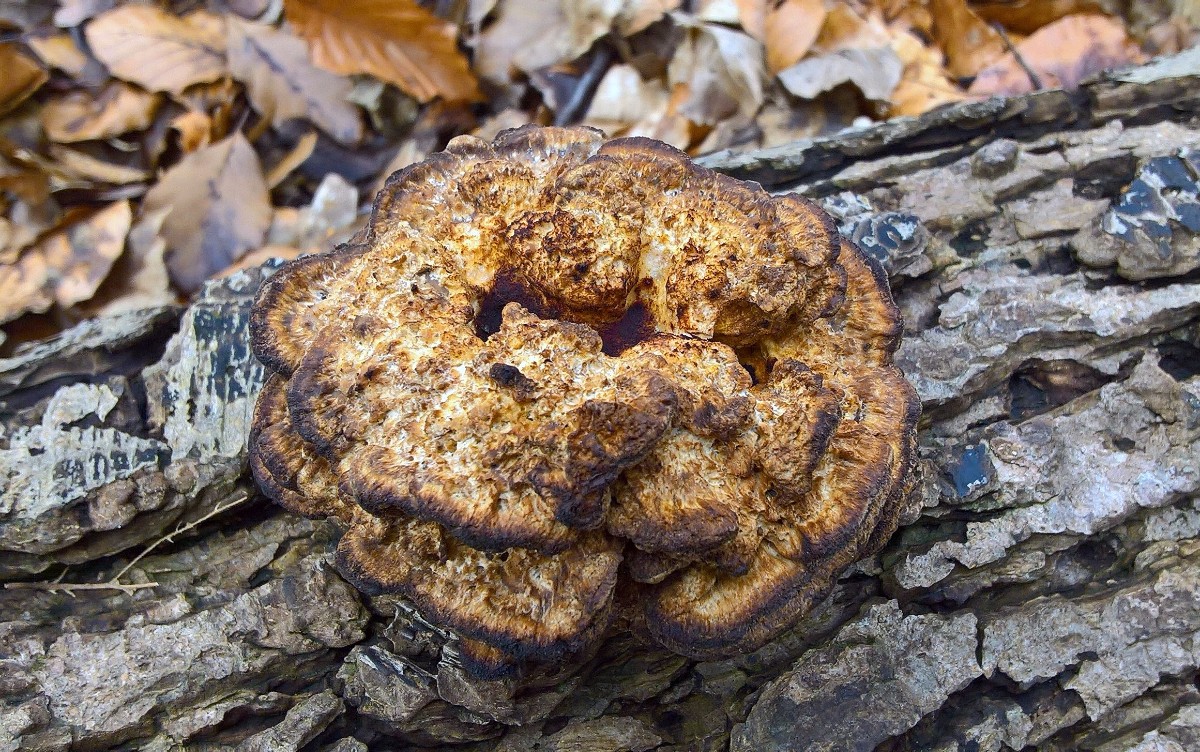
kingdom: Fungi
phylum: Basidiomycota
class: Agaricomycetes
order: Hymenochaetales
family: Hymenochaetaceae
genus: Xanthoporia
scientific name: Xanthoporia radiata
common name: elle-spejlporesvamp
